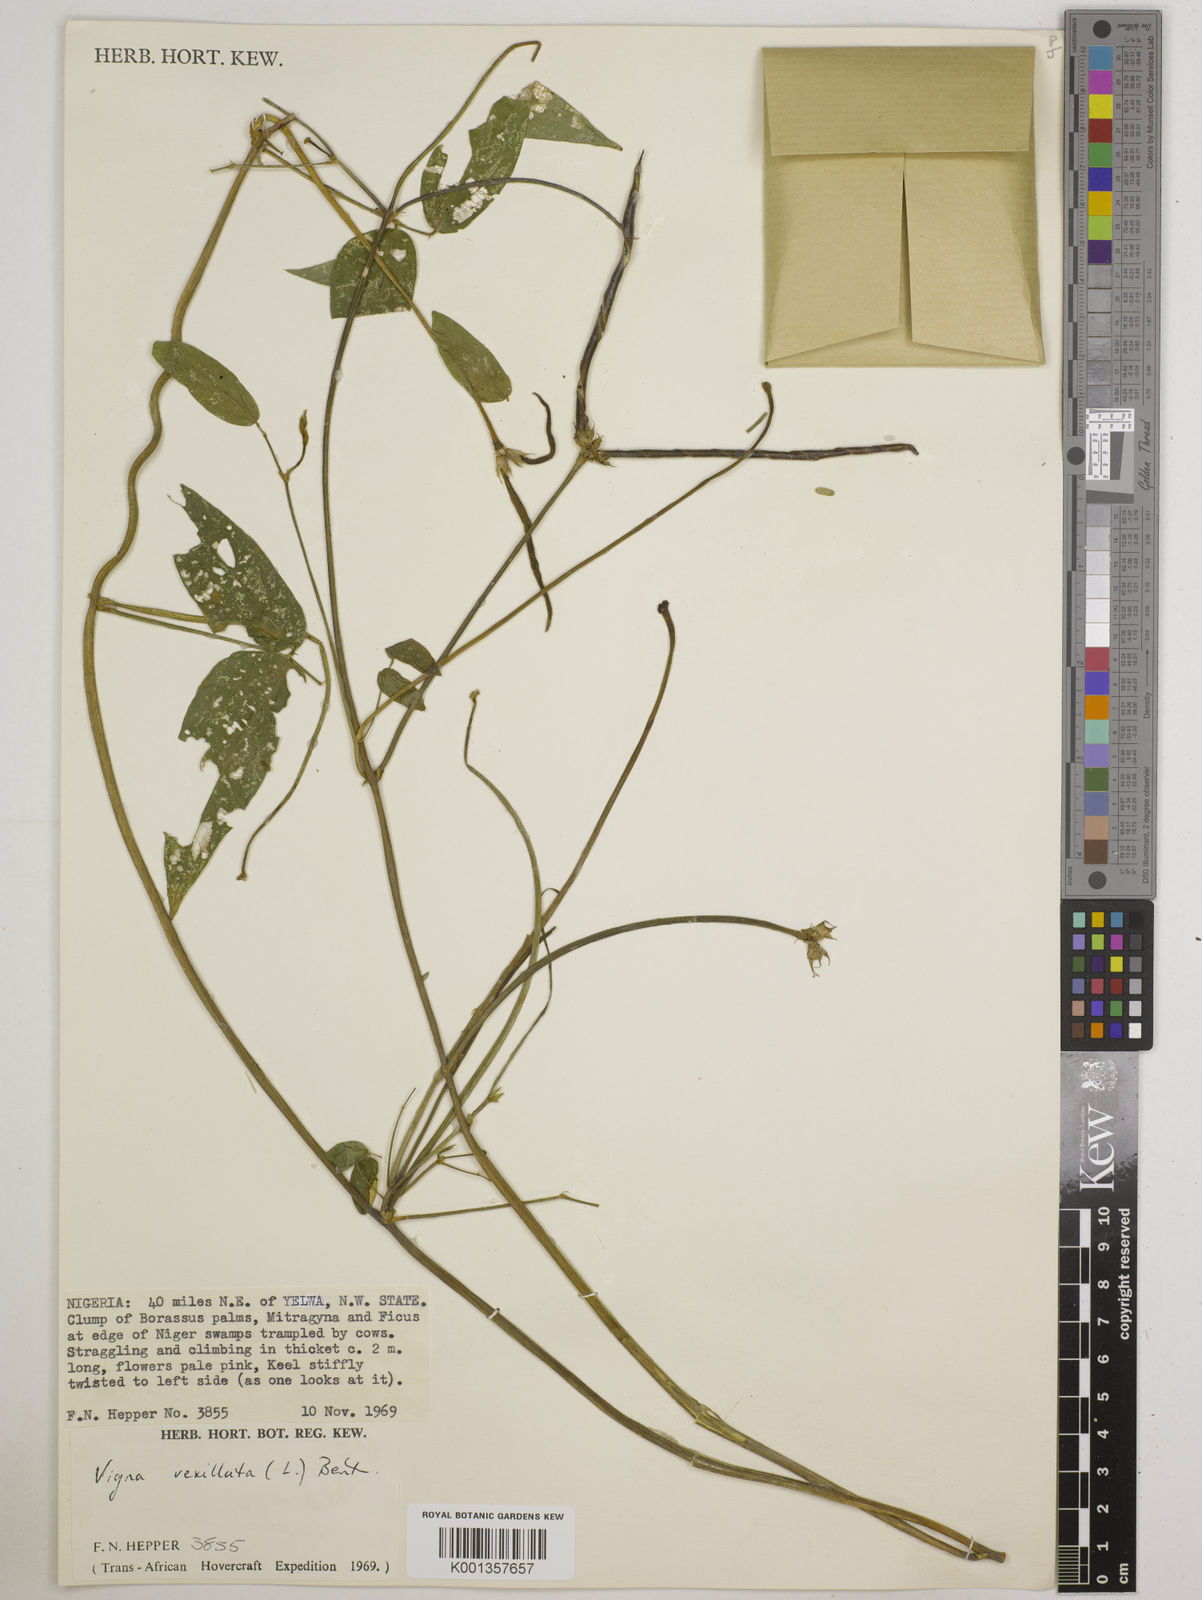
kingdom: Plantae
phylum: Tracheophyta
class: Magnoliopsida
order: Fabales
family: Fabaceae
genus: Vigna
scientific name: Vigna vexillata
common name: Zombi pea
